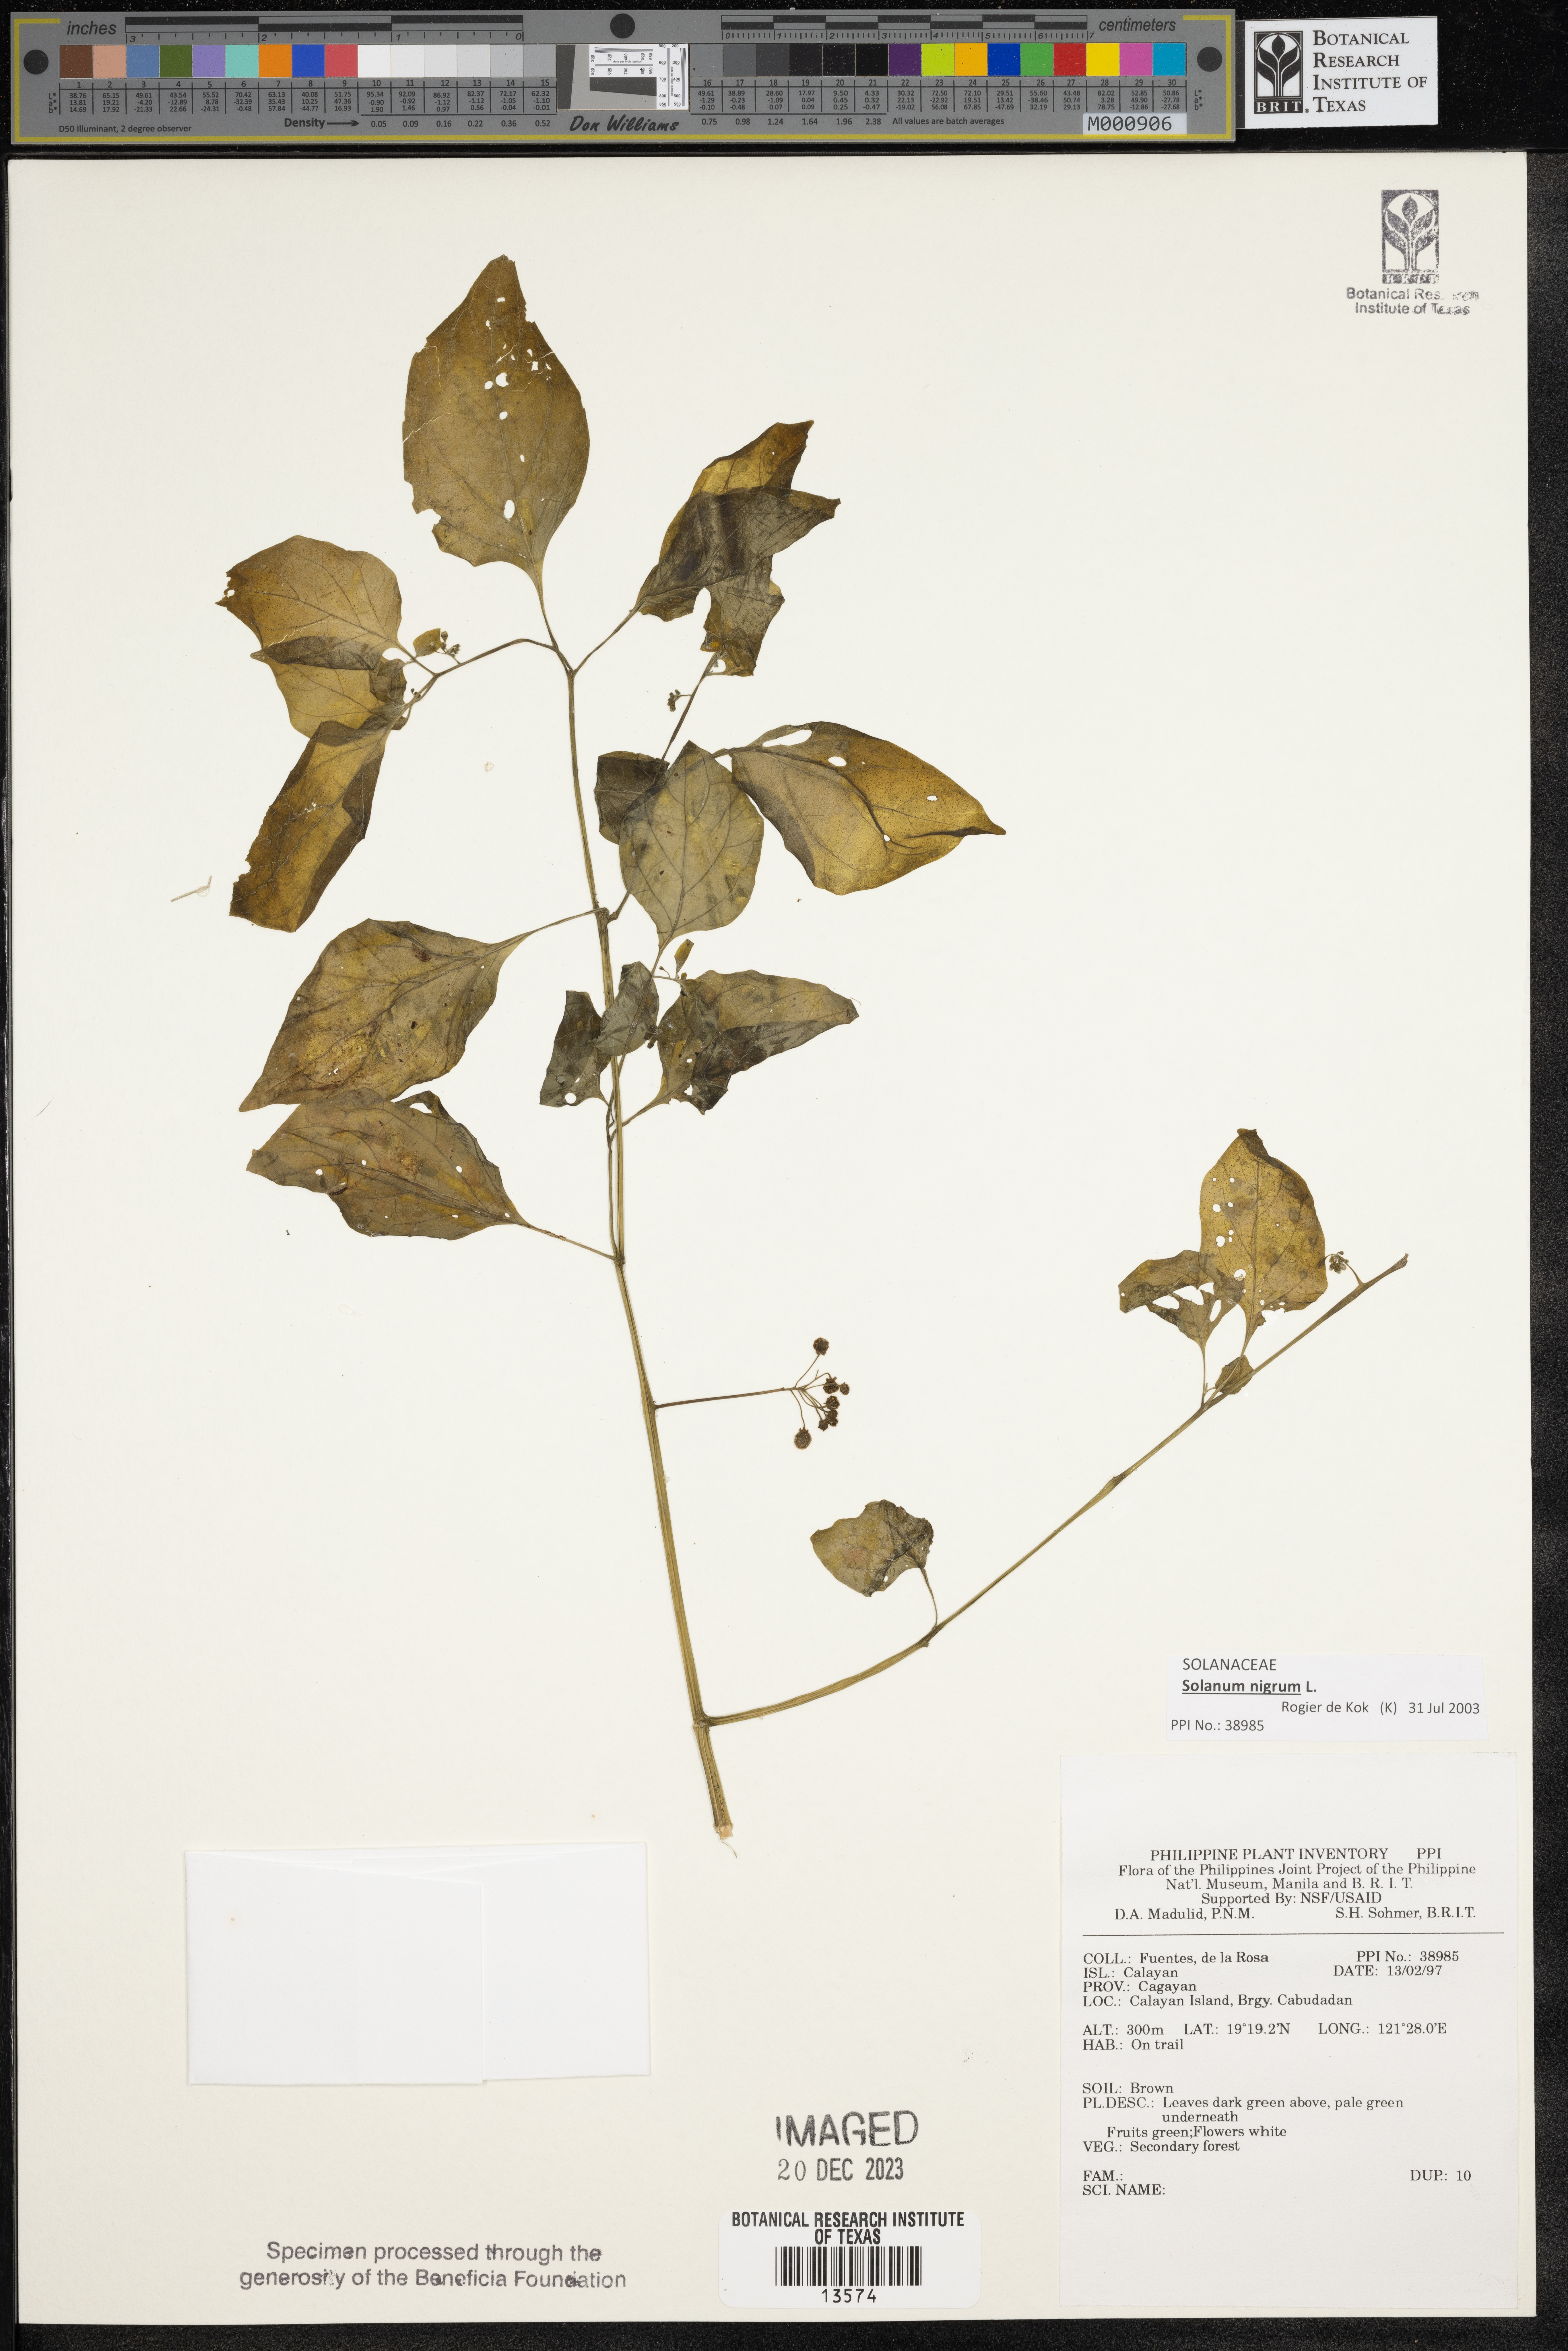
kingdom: Plantae
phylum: Tracheophyta
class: Magnoliopsida
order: Solanales
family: Solanaceae
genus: Solanum
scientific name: Solanum
